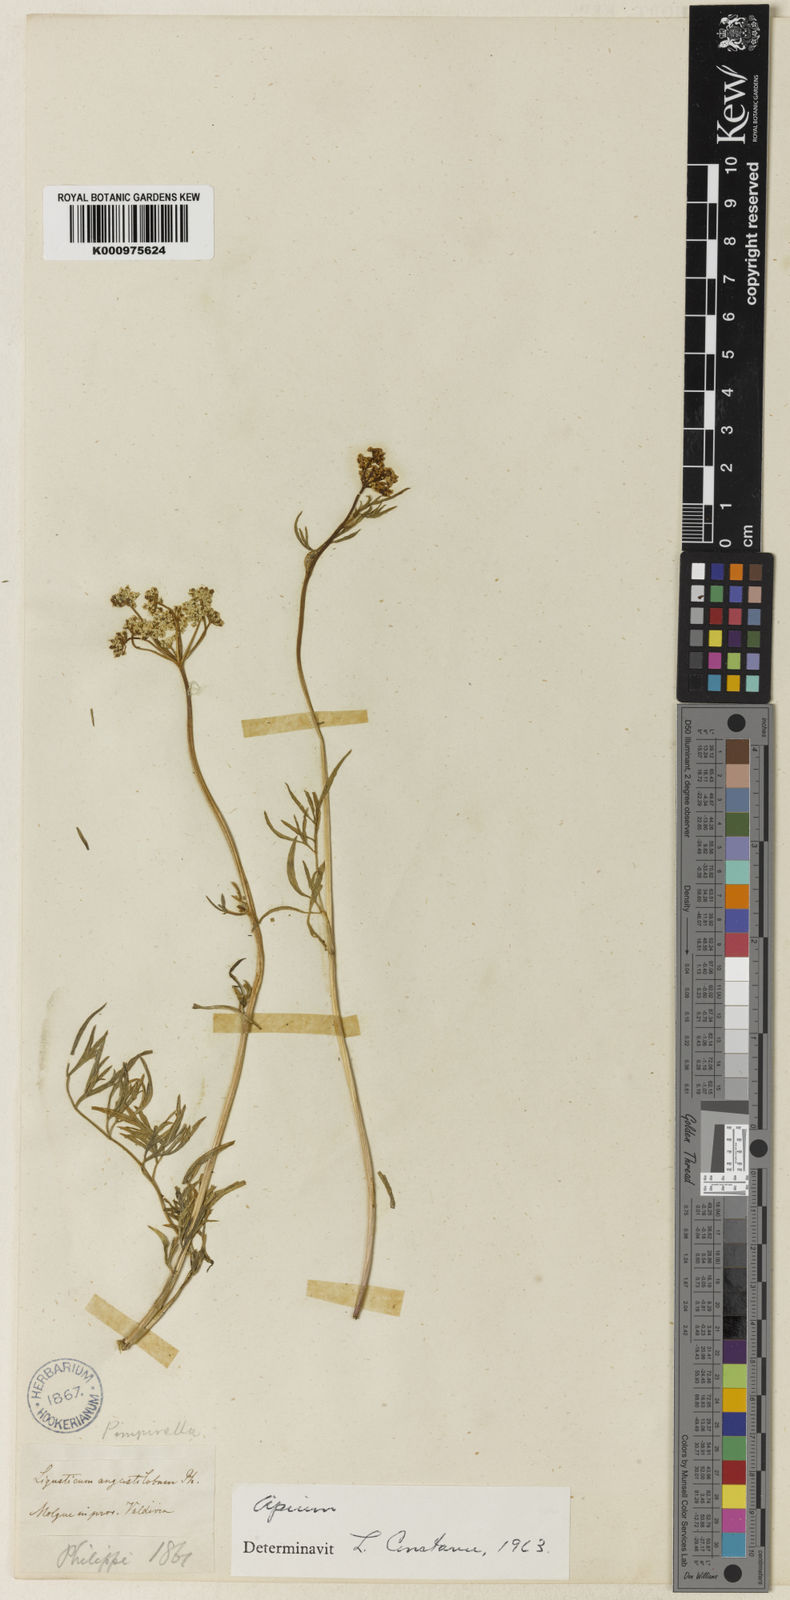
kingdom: Plantae
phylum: Tracheophyta
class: Magnoliopsida
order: Apiales
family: Apiaceae
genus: Apium
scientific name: Apium panul
